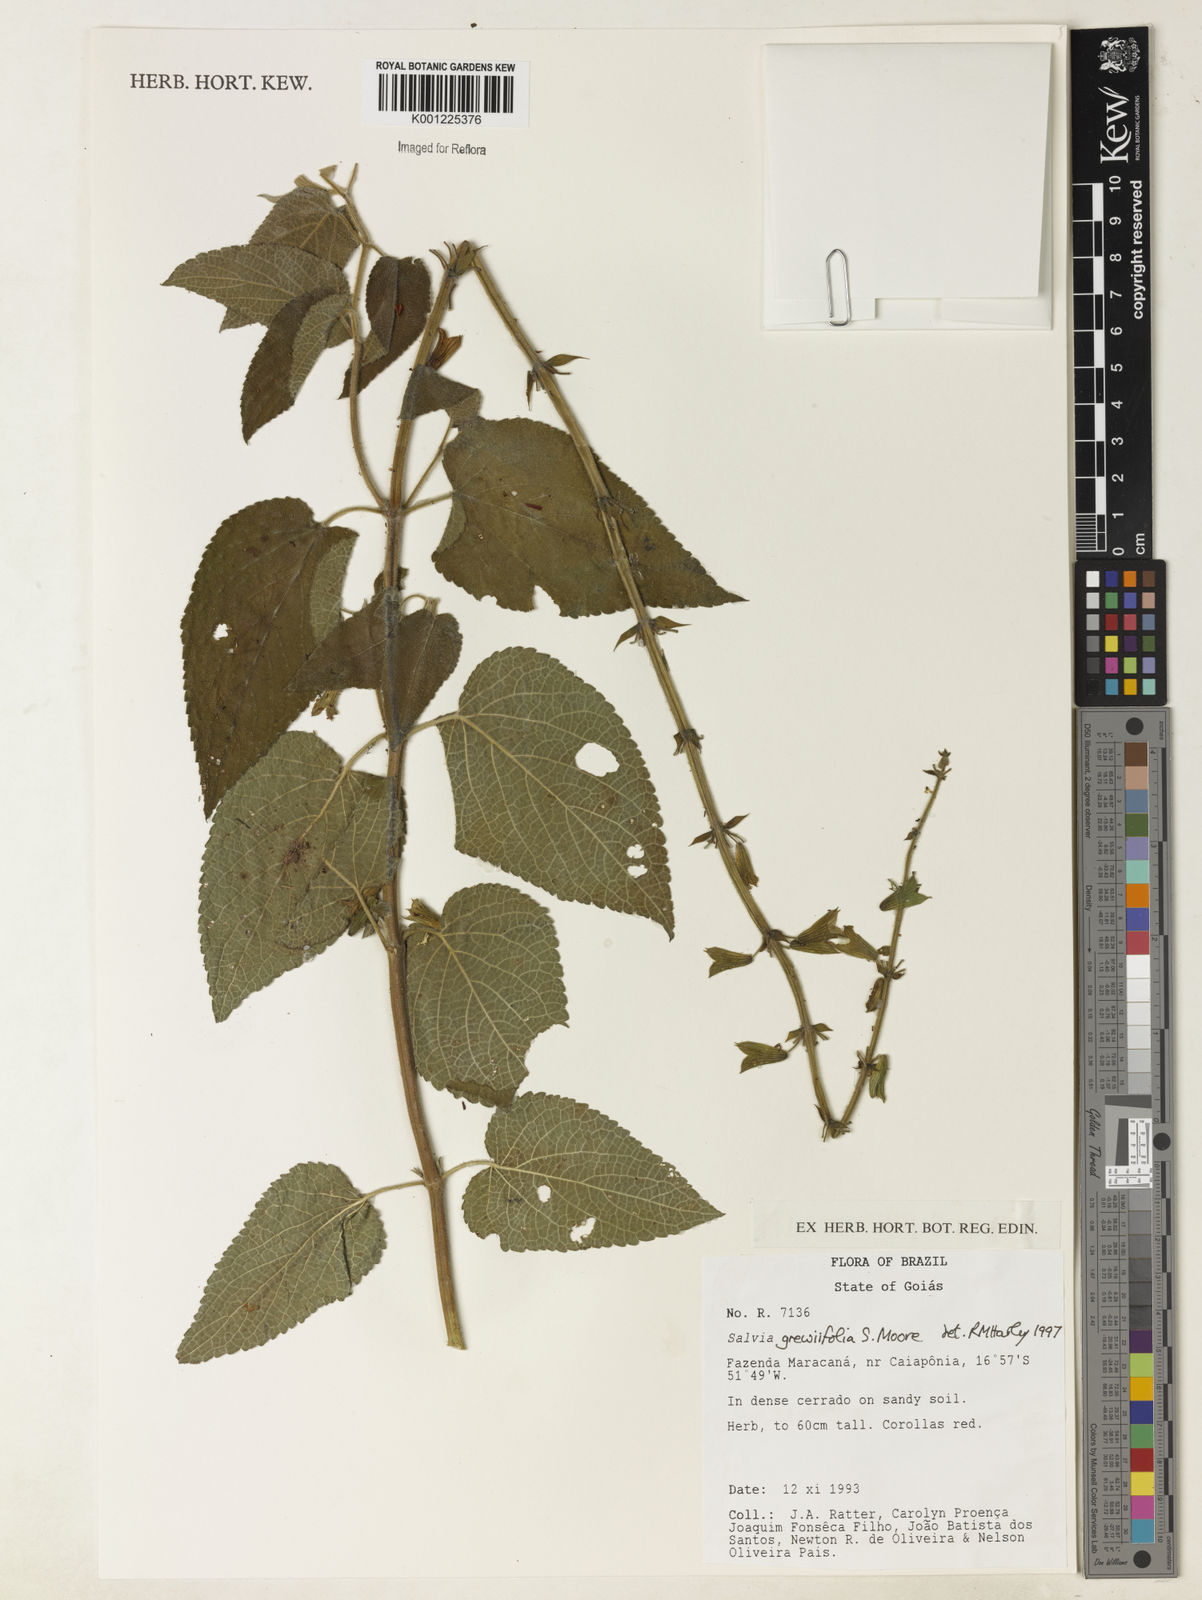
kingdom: Plantae
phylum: Tracheophyta
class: Magnoliopsida
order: Lamiales
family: Lamiaceae
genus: Salvia
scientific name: Salvia grewiifolia
